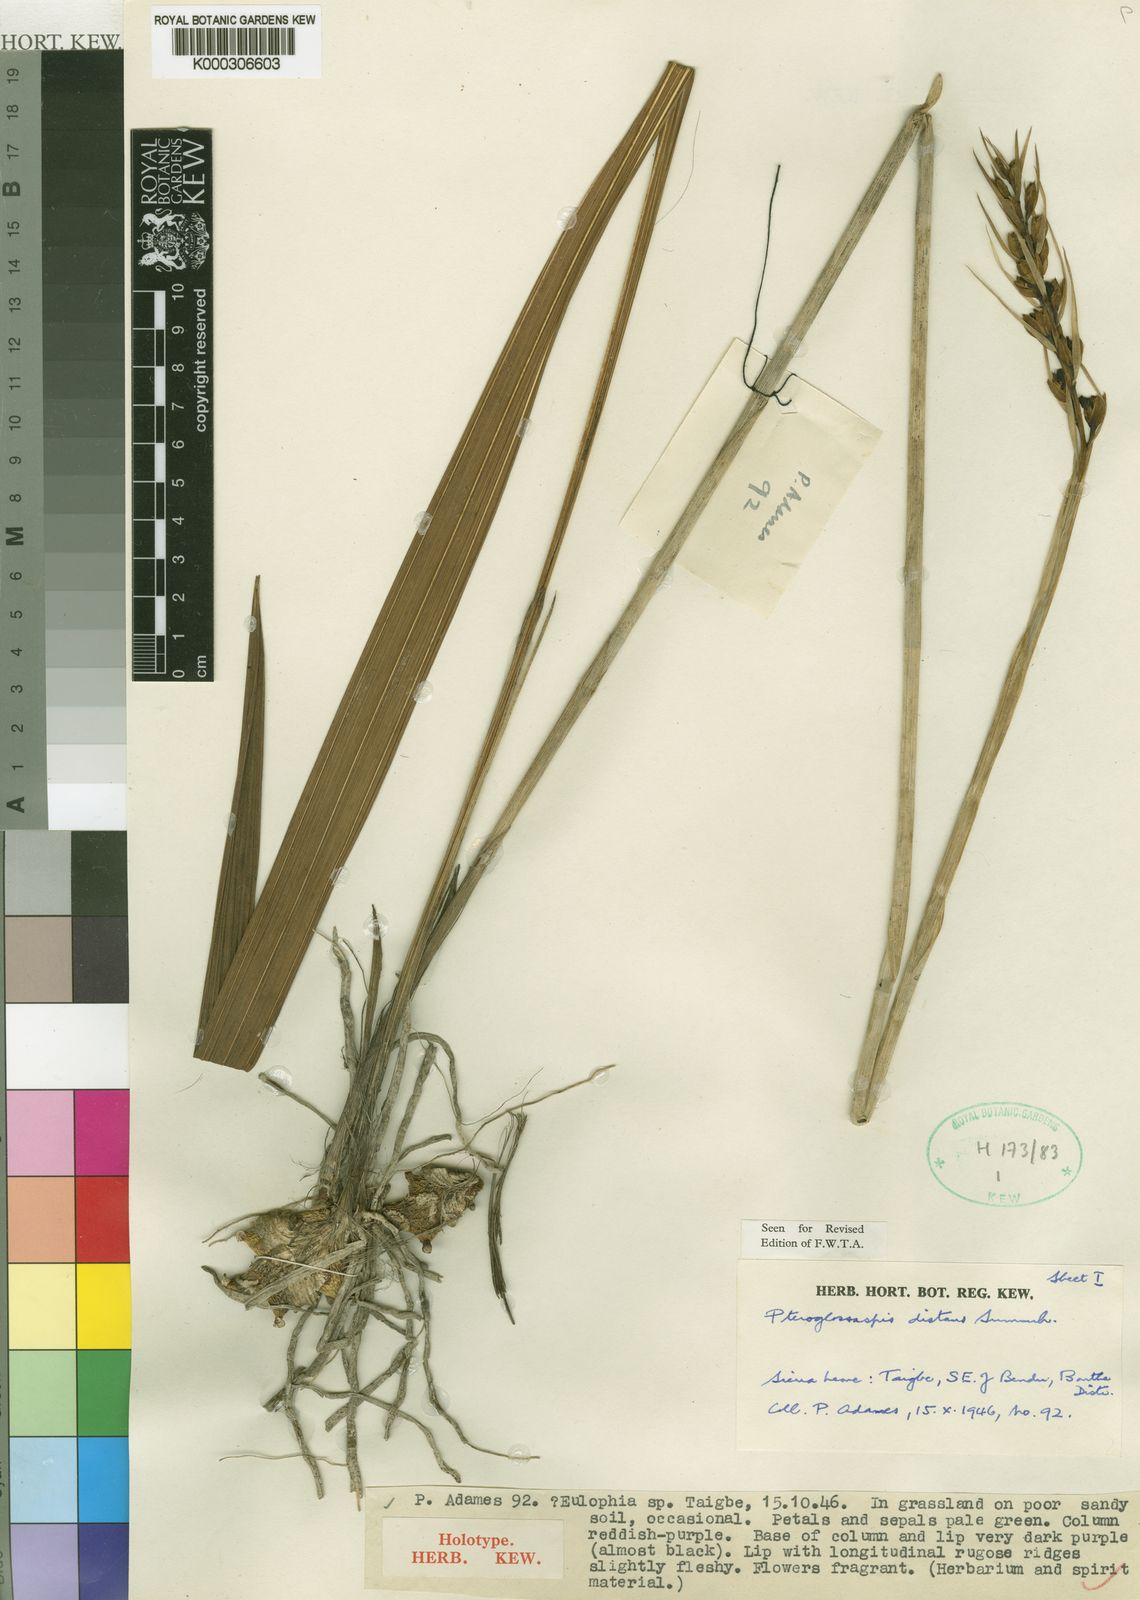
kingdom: Plantae
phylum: Tracheophyta
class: Liliopsida
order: Asparagales
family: Orchidaceae
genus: Eulophia
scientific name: Eulophia distans
